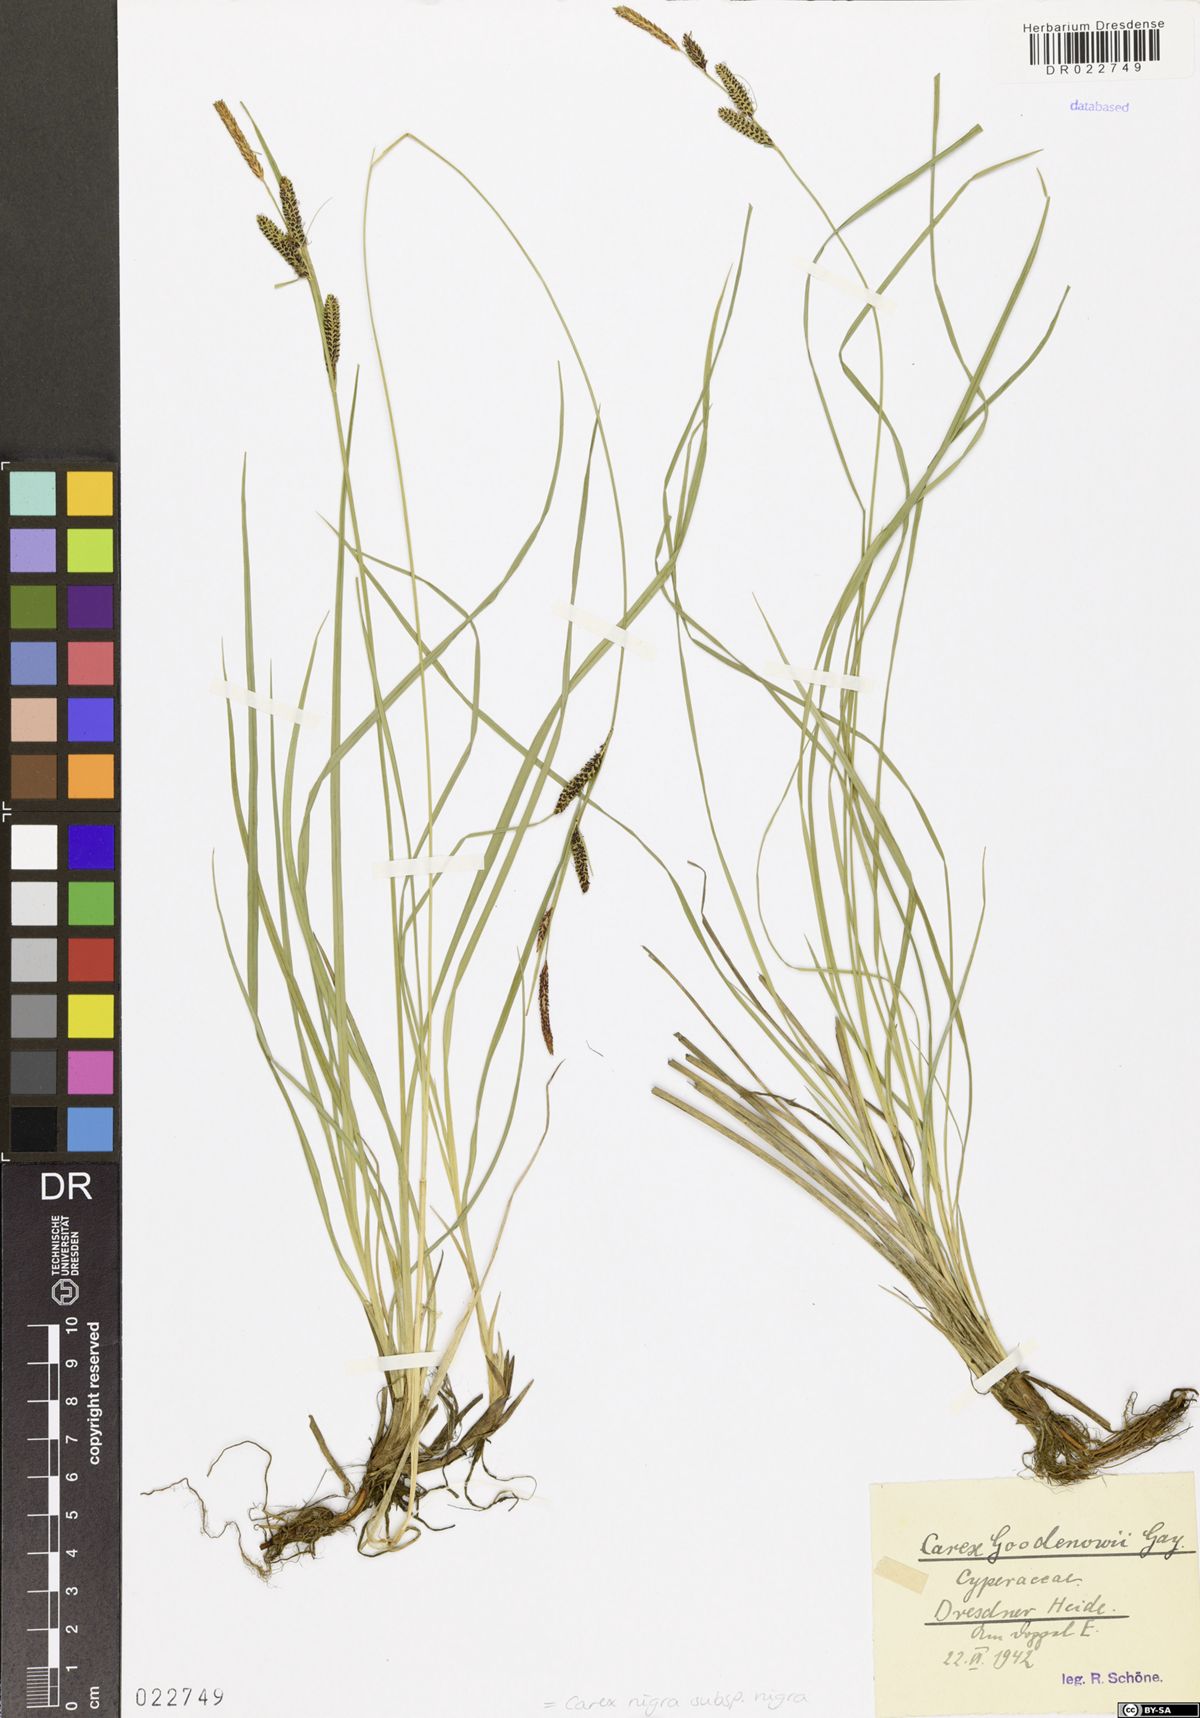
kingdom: Plantae
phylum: Tracheophyta
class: Liliopsida
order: Poales
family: Cyperaceae
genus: Carex
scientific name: Carex nigra
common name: Common sedge
